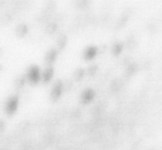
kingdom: Animalia
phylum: Chordata
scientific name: Chordata
